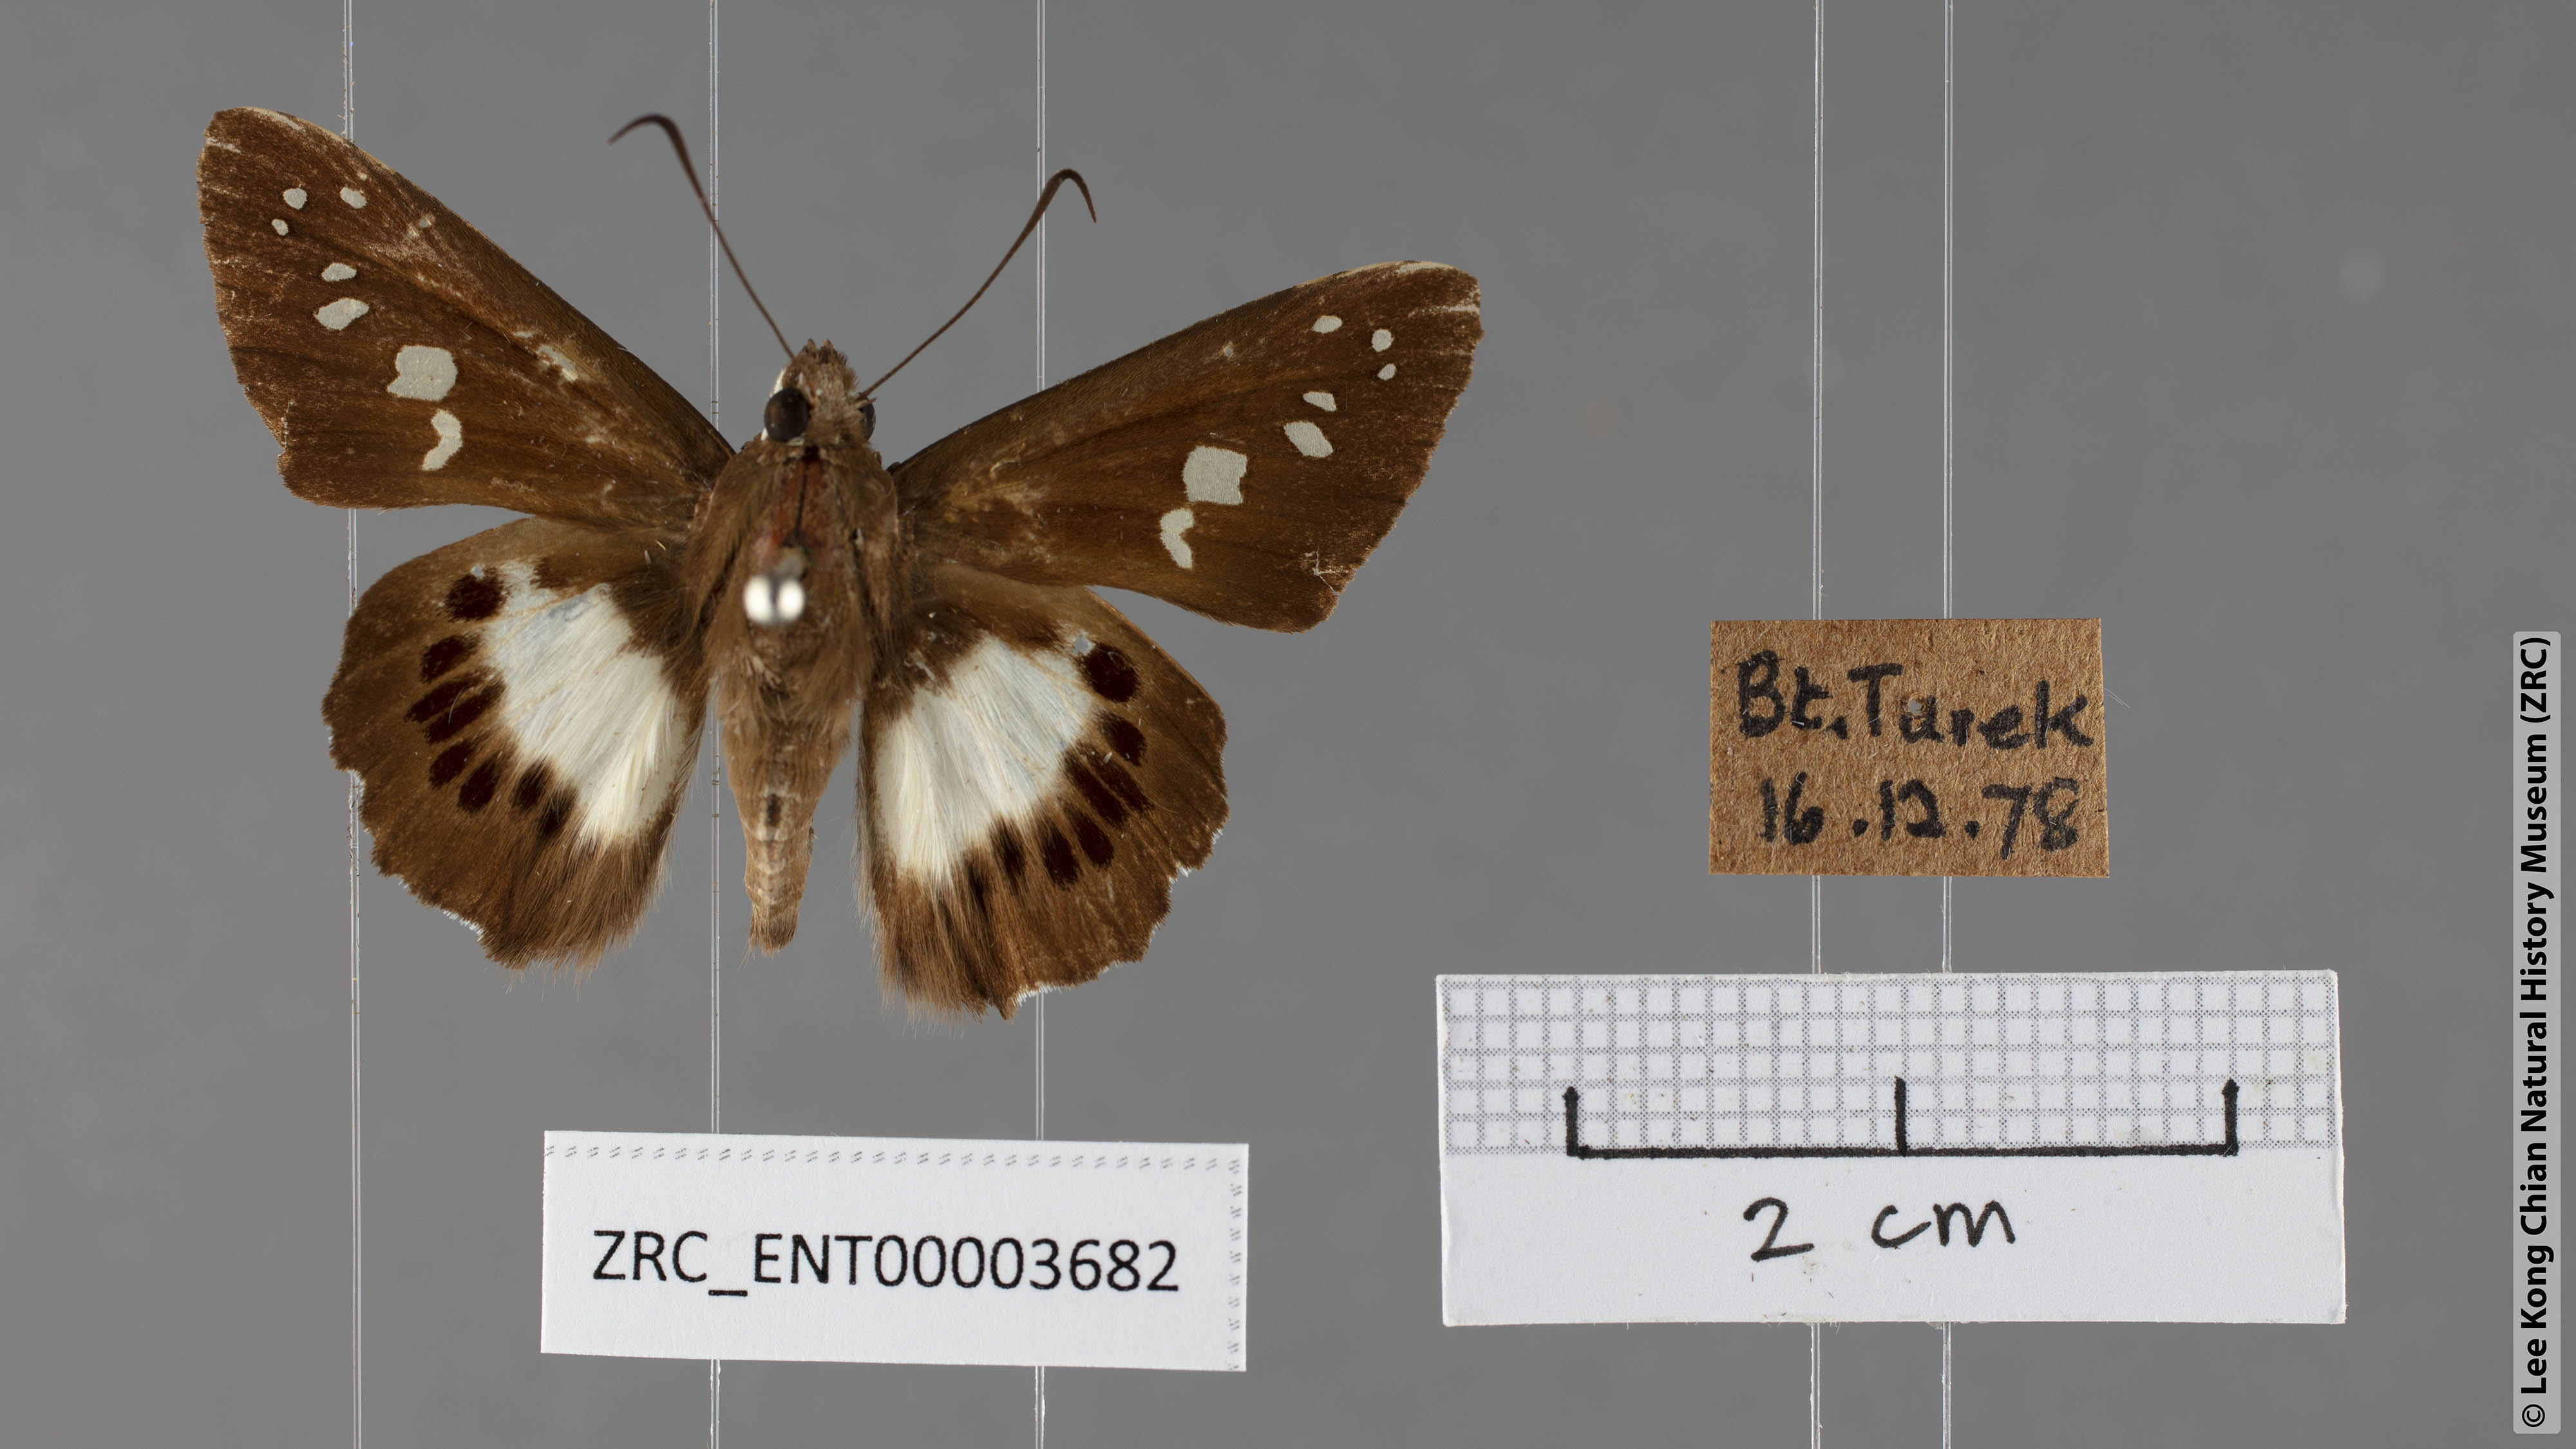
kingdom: Animalia
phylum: Arthropoda
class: Insecta
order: Lepidoptera
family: Hesperiidae
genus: Seseria
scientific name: Seseria affinis
